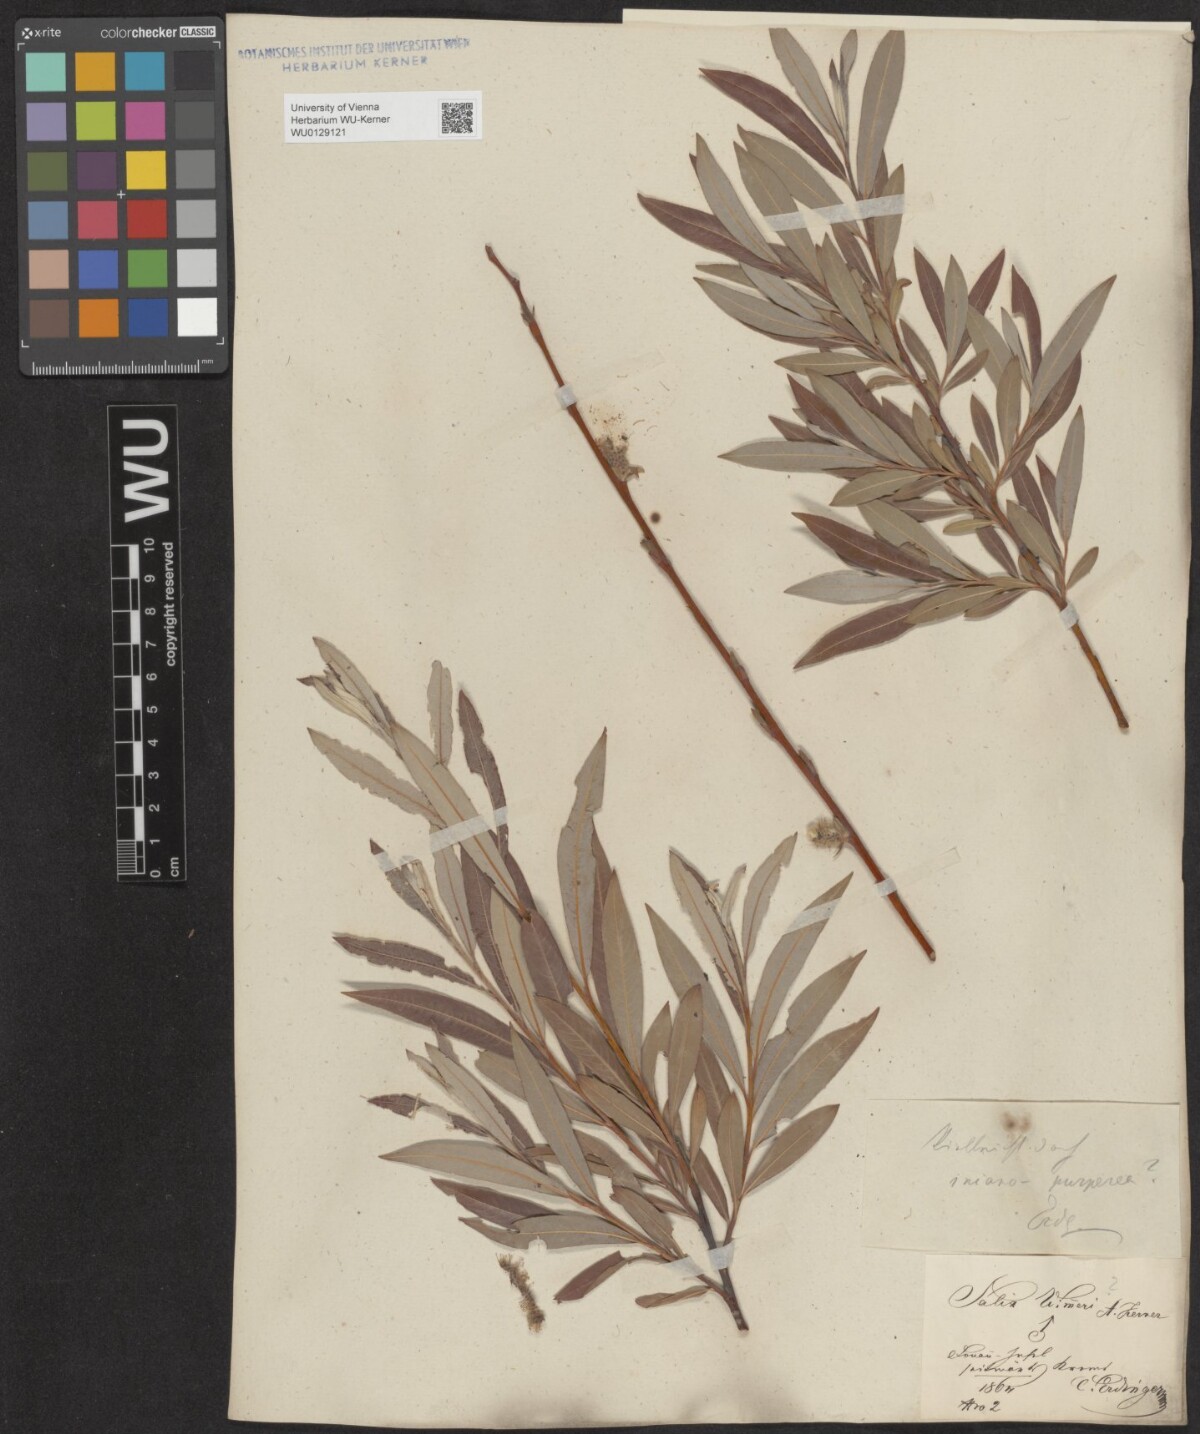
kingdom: Plantae
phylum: Tracheophyta
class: Magnoliopsida
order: Malpighiales
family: Salicaceae
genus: Salix
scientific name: Salix
